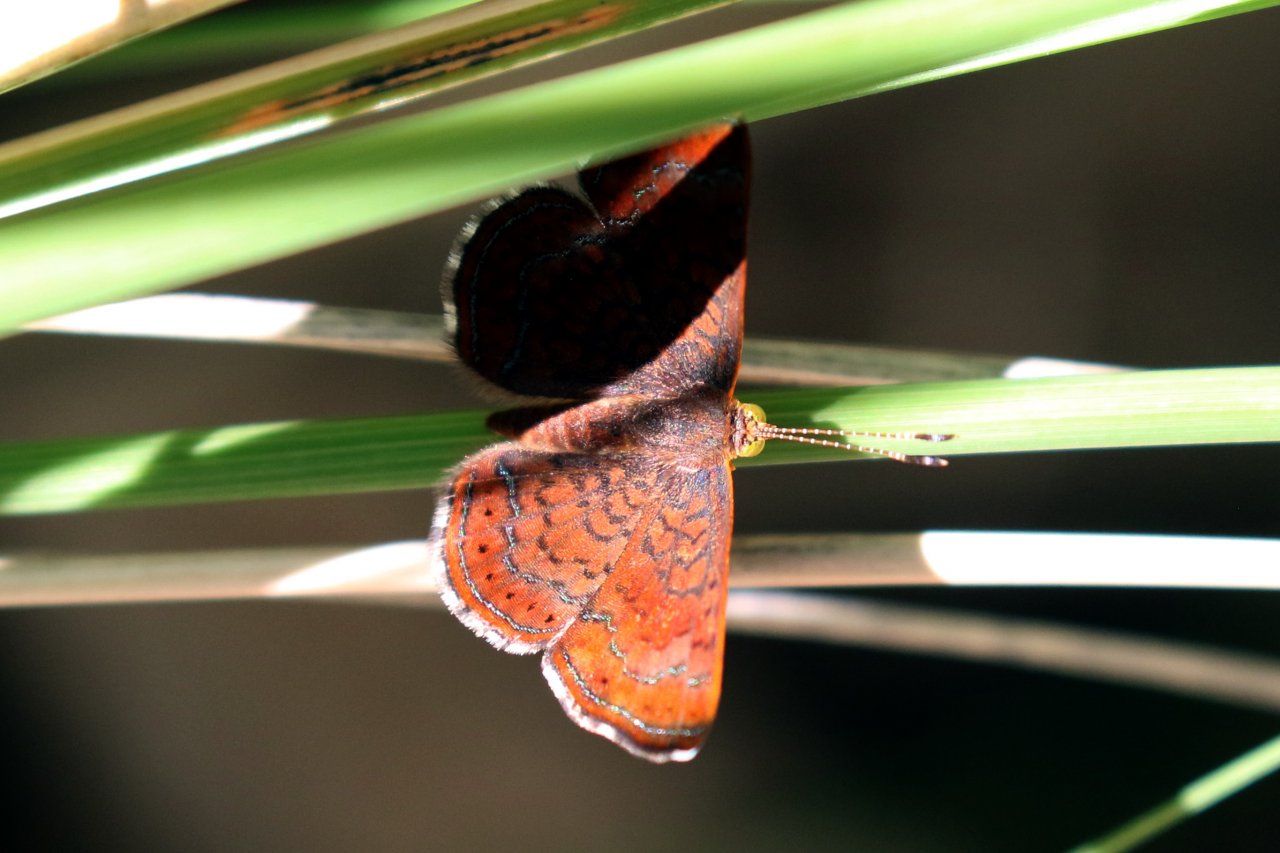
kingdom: Animalia
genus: Calephelis
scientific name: Calephelis arizonensis
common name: Arizona Metalmark
